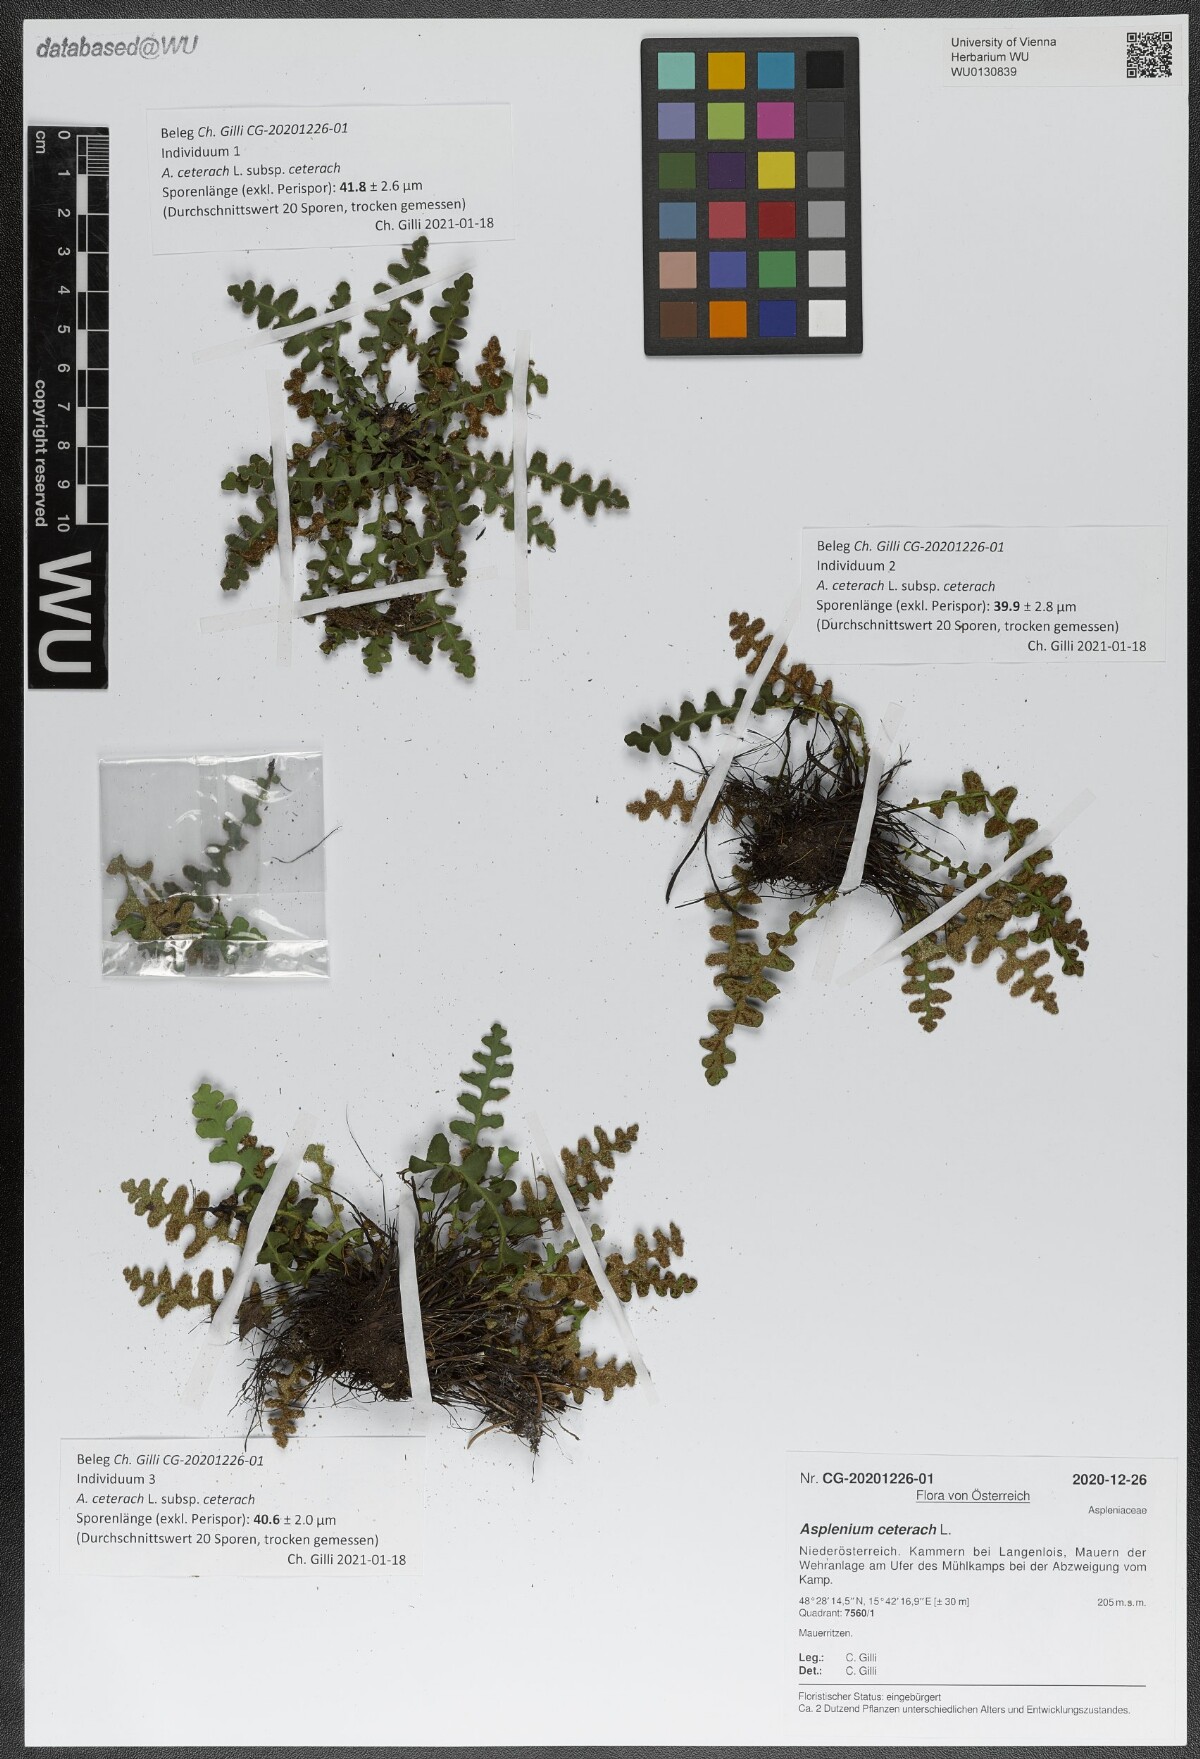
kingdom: Plantae
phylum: Tracheophyta
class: Polypodiopsida
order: Polypodiales
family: Aspleniaceae
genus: Asplenium
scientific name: Asplenium ceterach
